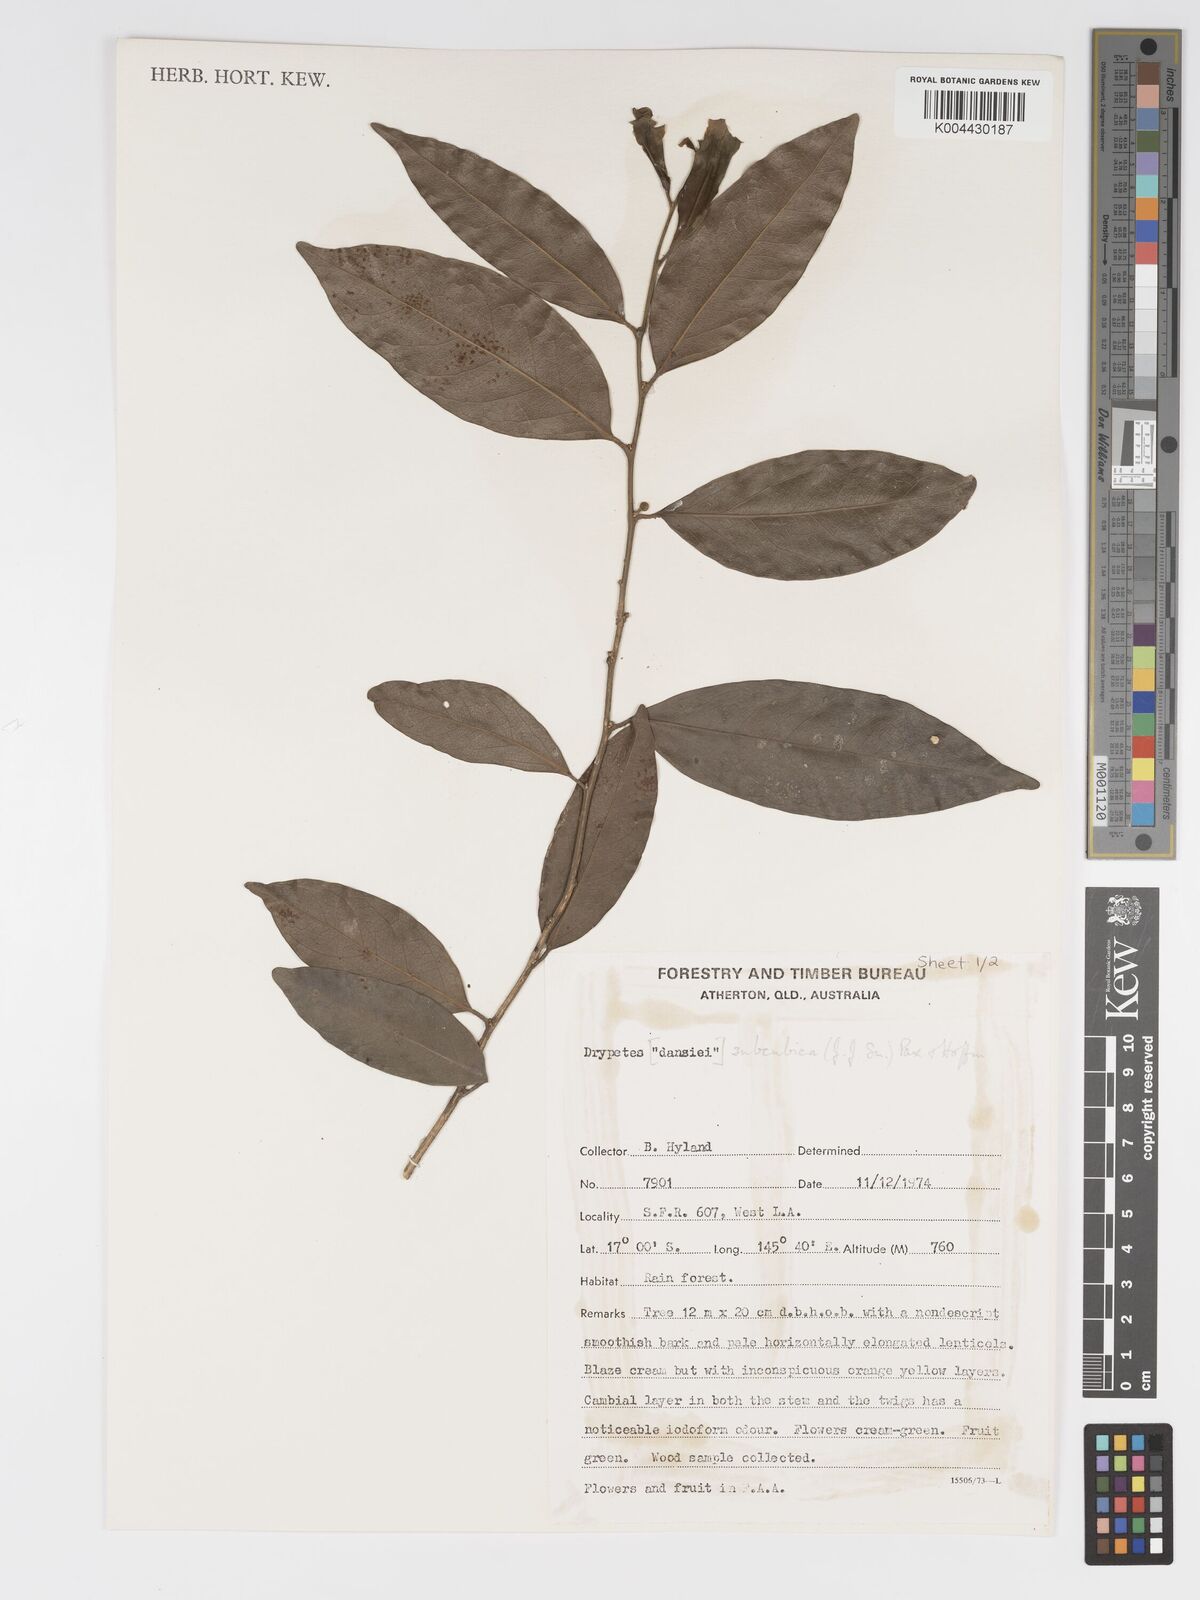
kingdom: Plantae
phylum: Tracheophyta
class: Magnoliopsida
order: Malpighiales
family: Putranjivaceae
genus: Drypetes
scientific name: Drypetes subcubica
